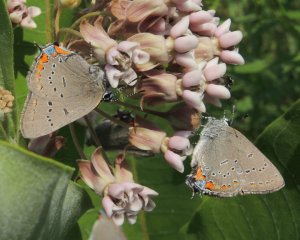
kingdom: Animalia
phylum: Arthropoda
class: Insecta
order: Lepidoptera
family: Lycaenidae
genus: Strymon
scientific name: Strymon acadica
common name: Acadian Hairstreak
